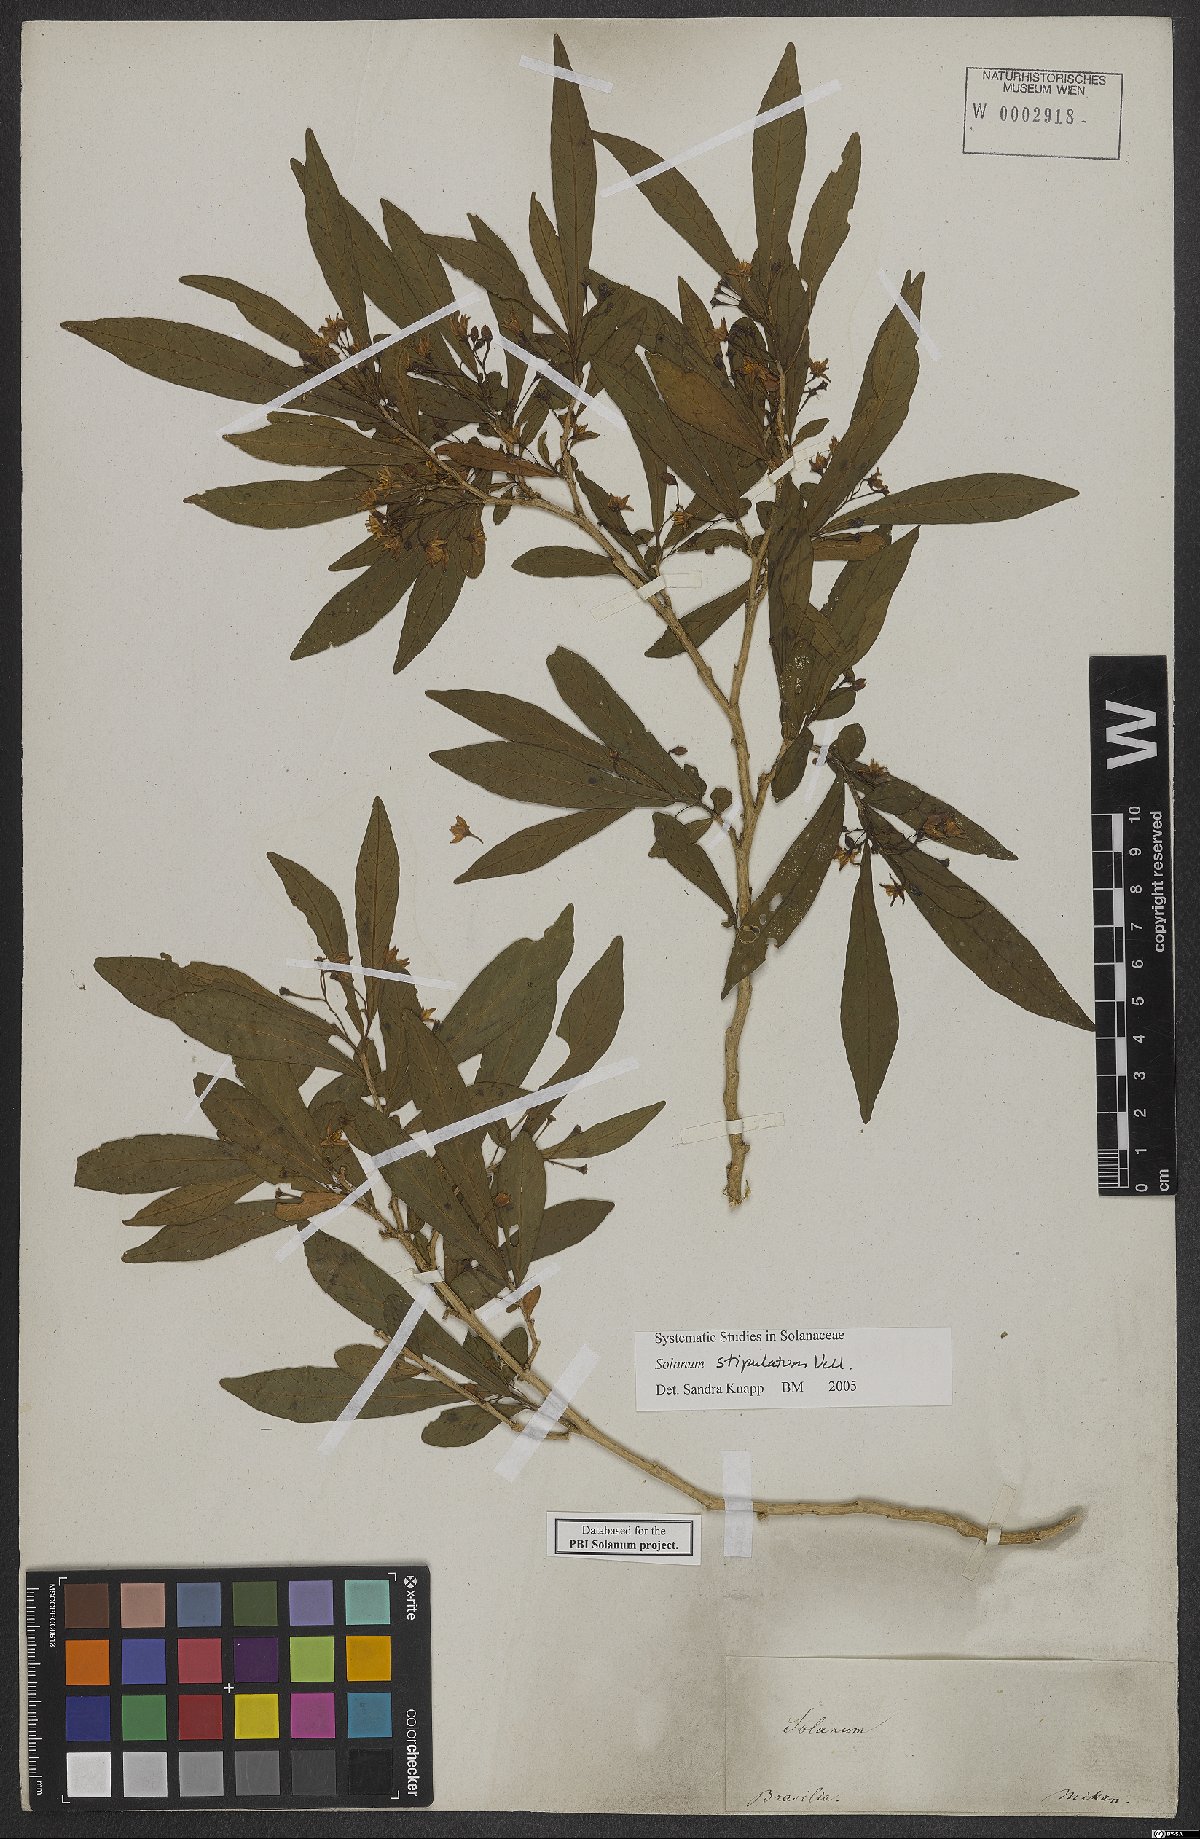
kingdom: Plantae
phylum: Tracheophyta
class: Magnoliopsida
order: Solanales
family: Solanaceae
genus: Solanum
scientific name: Solanum stipulatum
